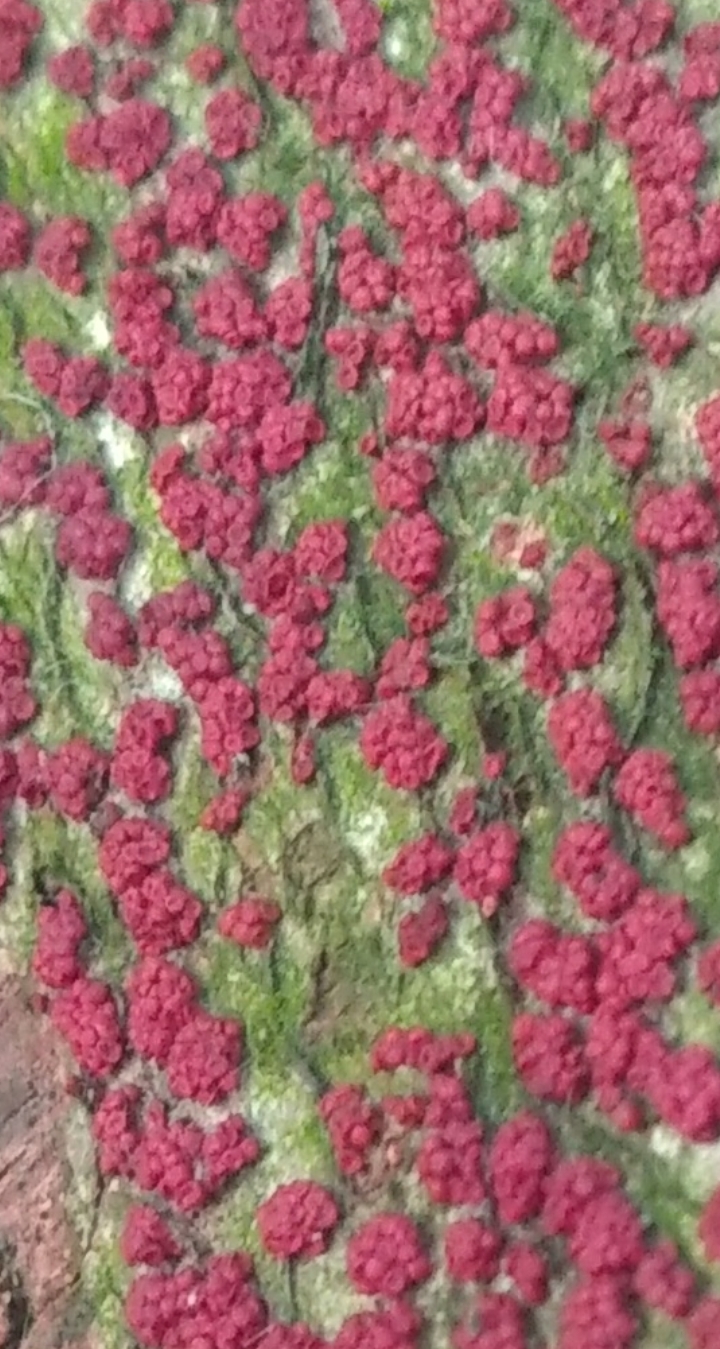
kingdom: Fungi
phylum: Ascomycota
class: Sordariomycetes
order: Hypocreales
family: Nectriaceae
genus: Nectria
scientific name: Nectria cinnabarina
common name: almindelig cinnobersvamp
